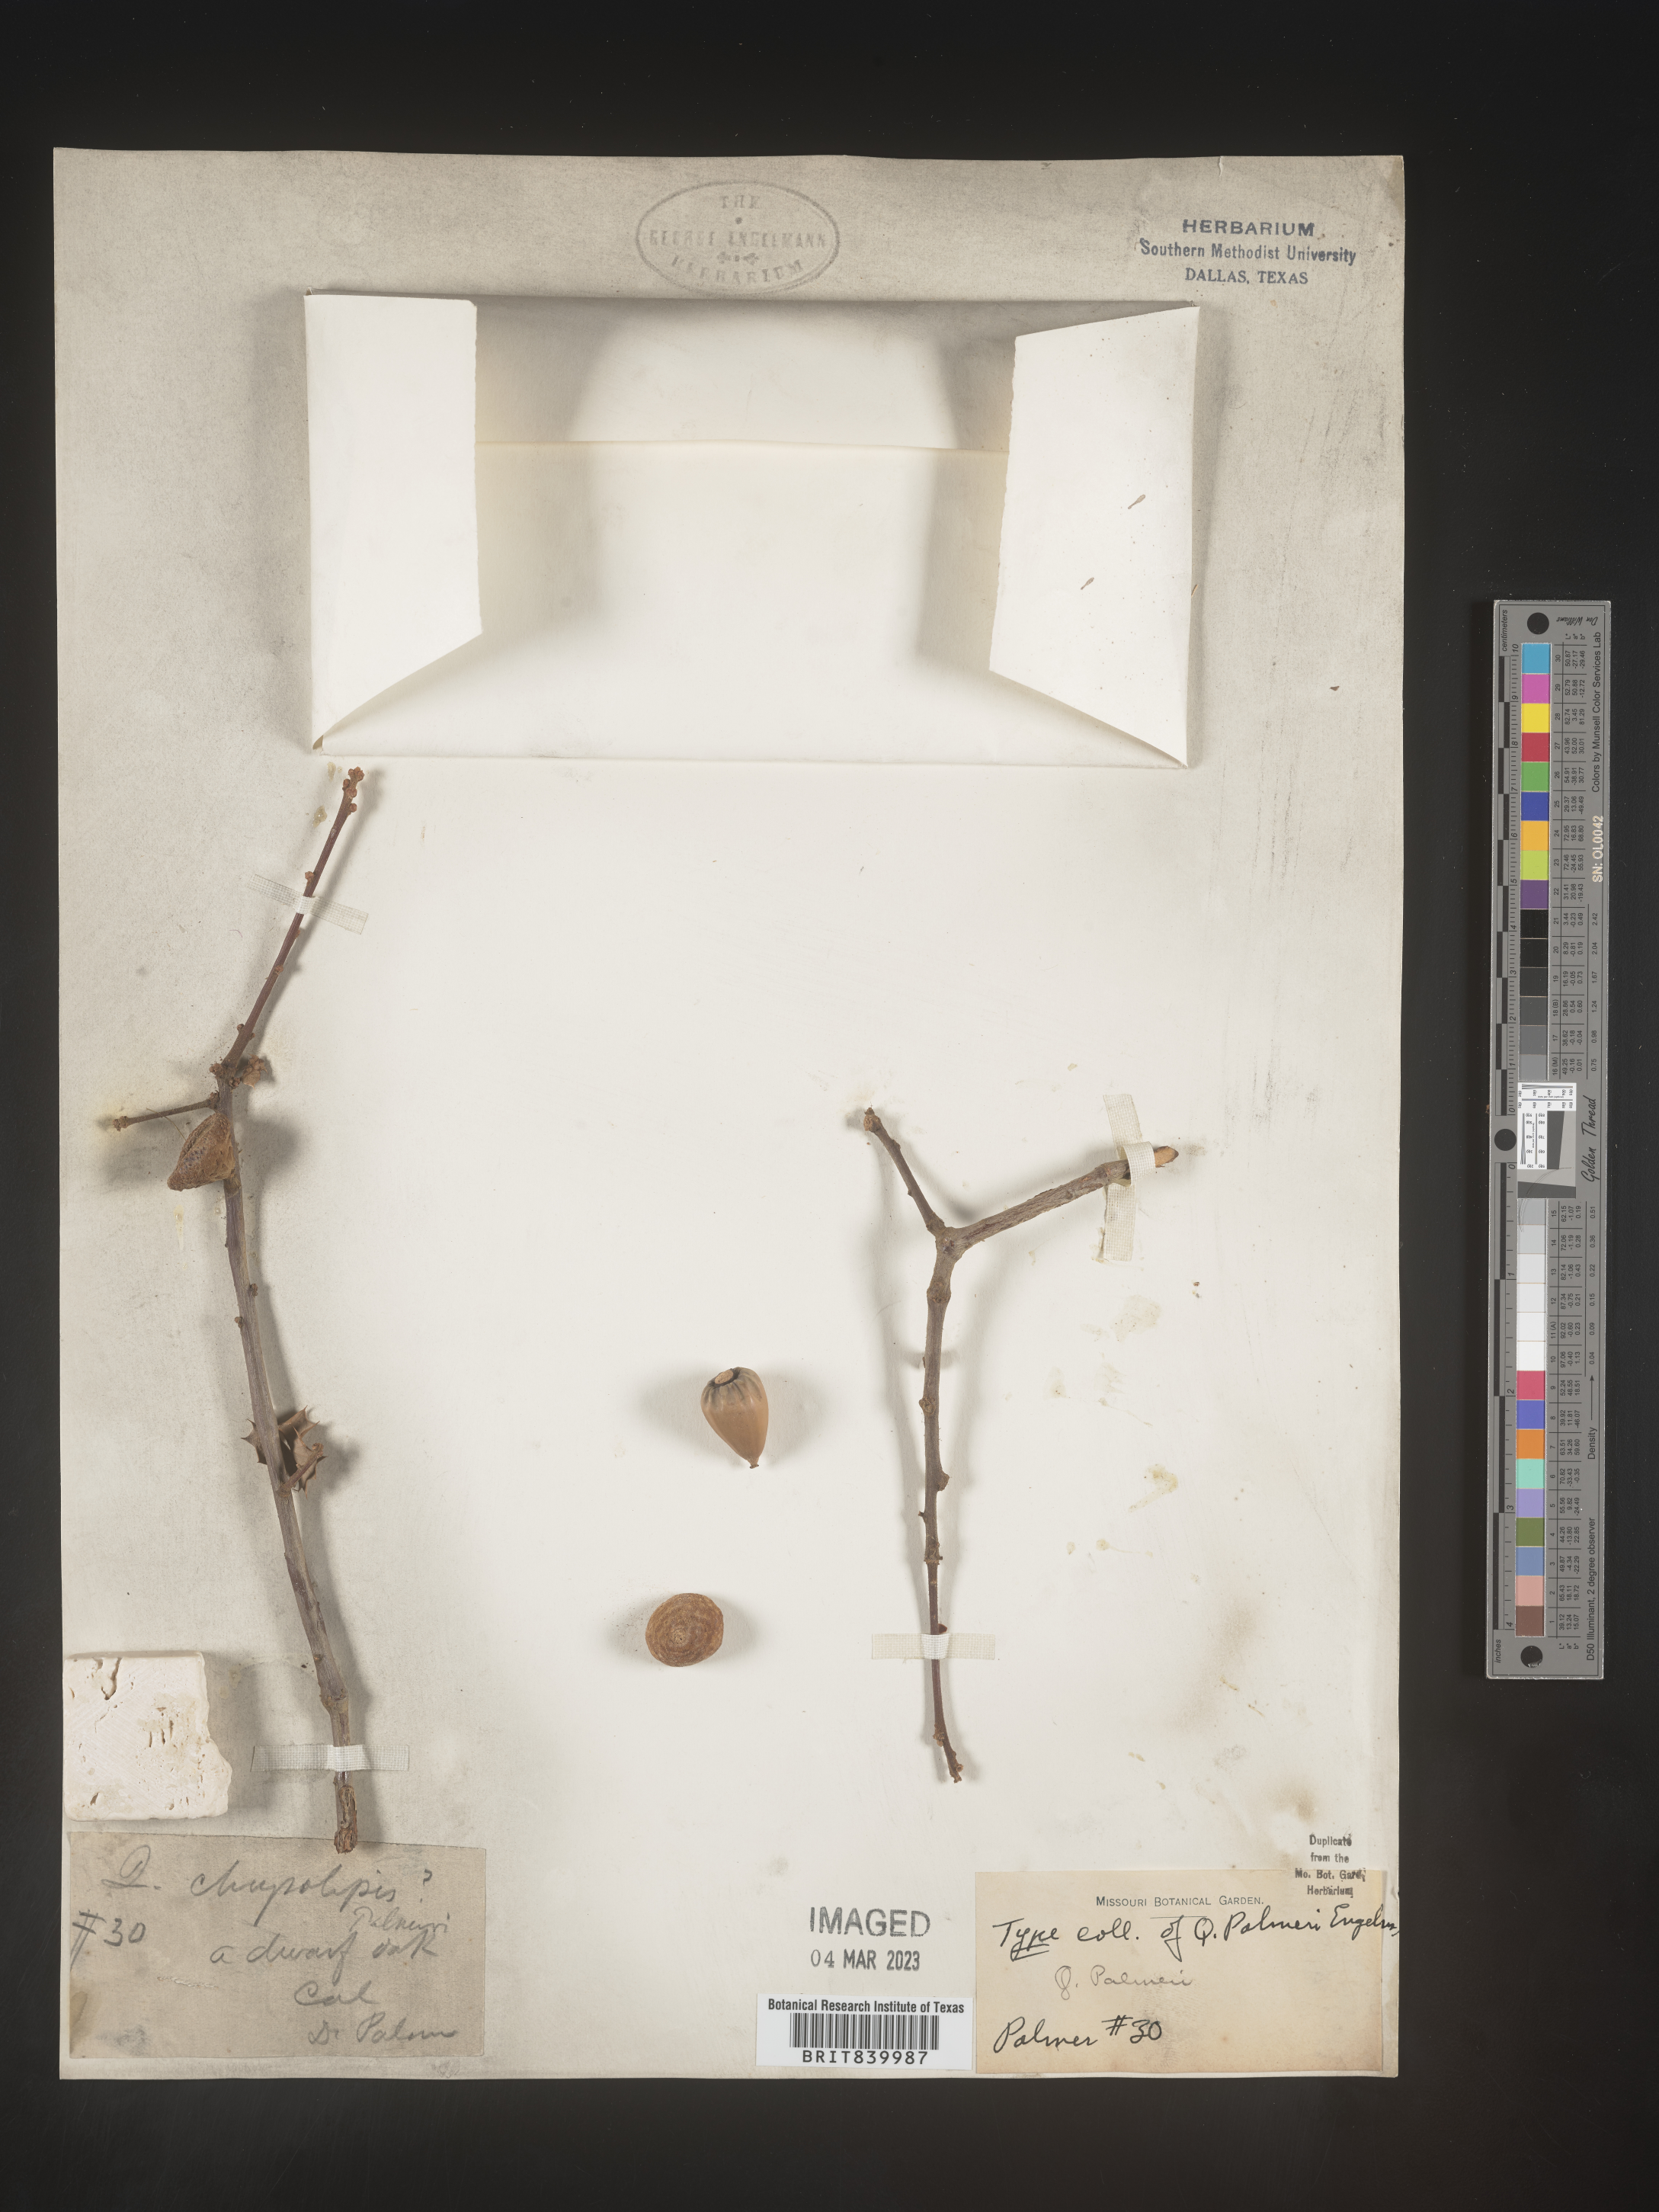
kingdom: Plantae
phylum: Tracheophyta
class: Magnoliopsida
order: Fagales
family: Fagaceae
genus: Quercus
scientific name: Quercus palmeri
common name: Dunn oak
